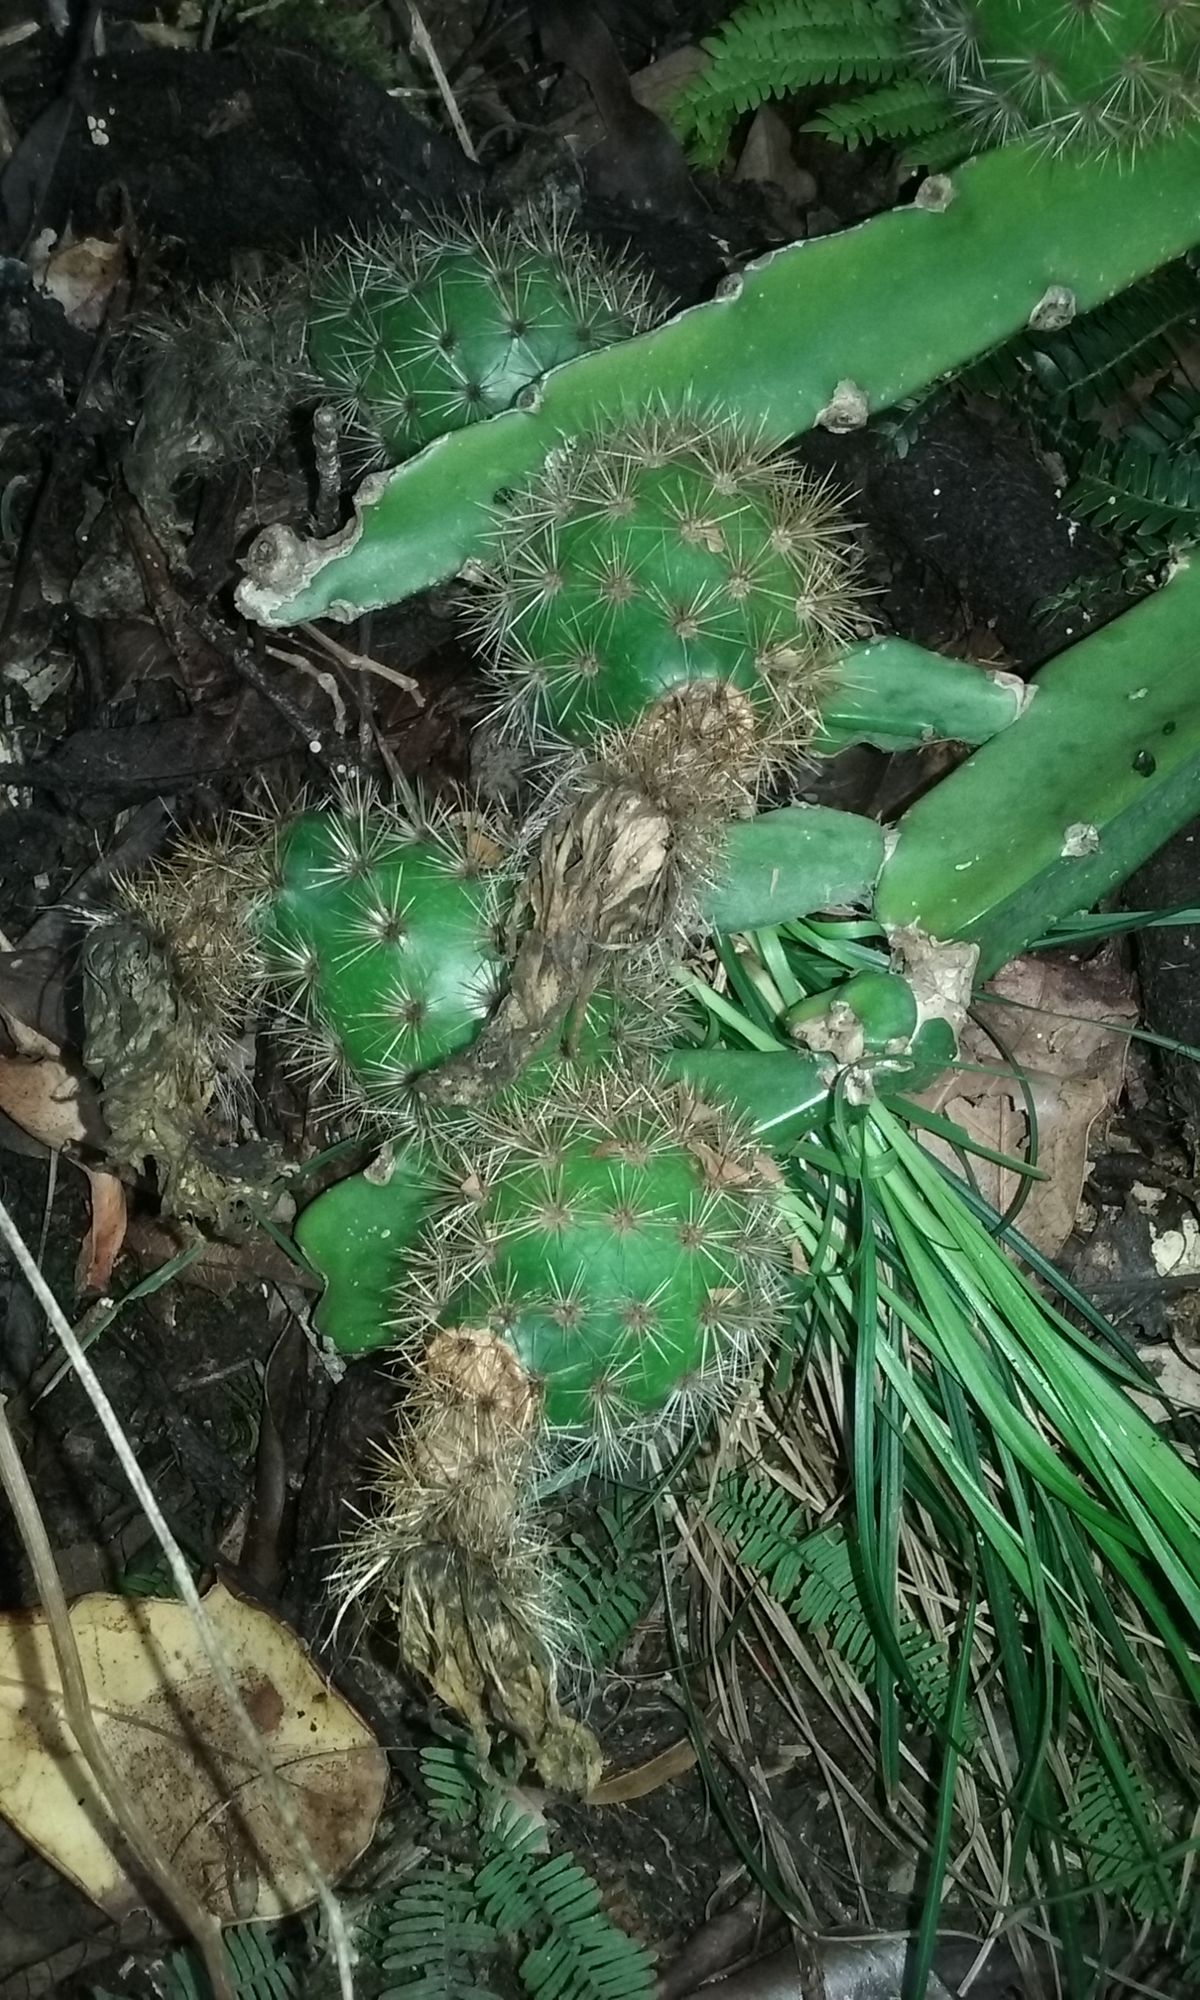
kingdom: Plantae
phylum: Tracheophyta
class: Magnoliopsida
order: Caryophyllales
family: Cactaceae
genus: Weberocereus
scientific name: Weberocereus glaber
